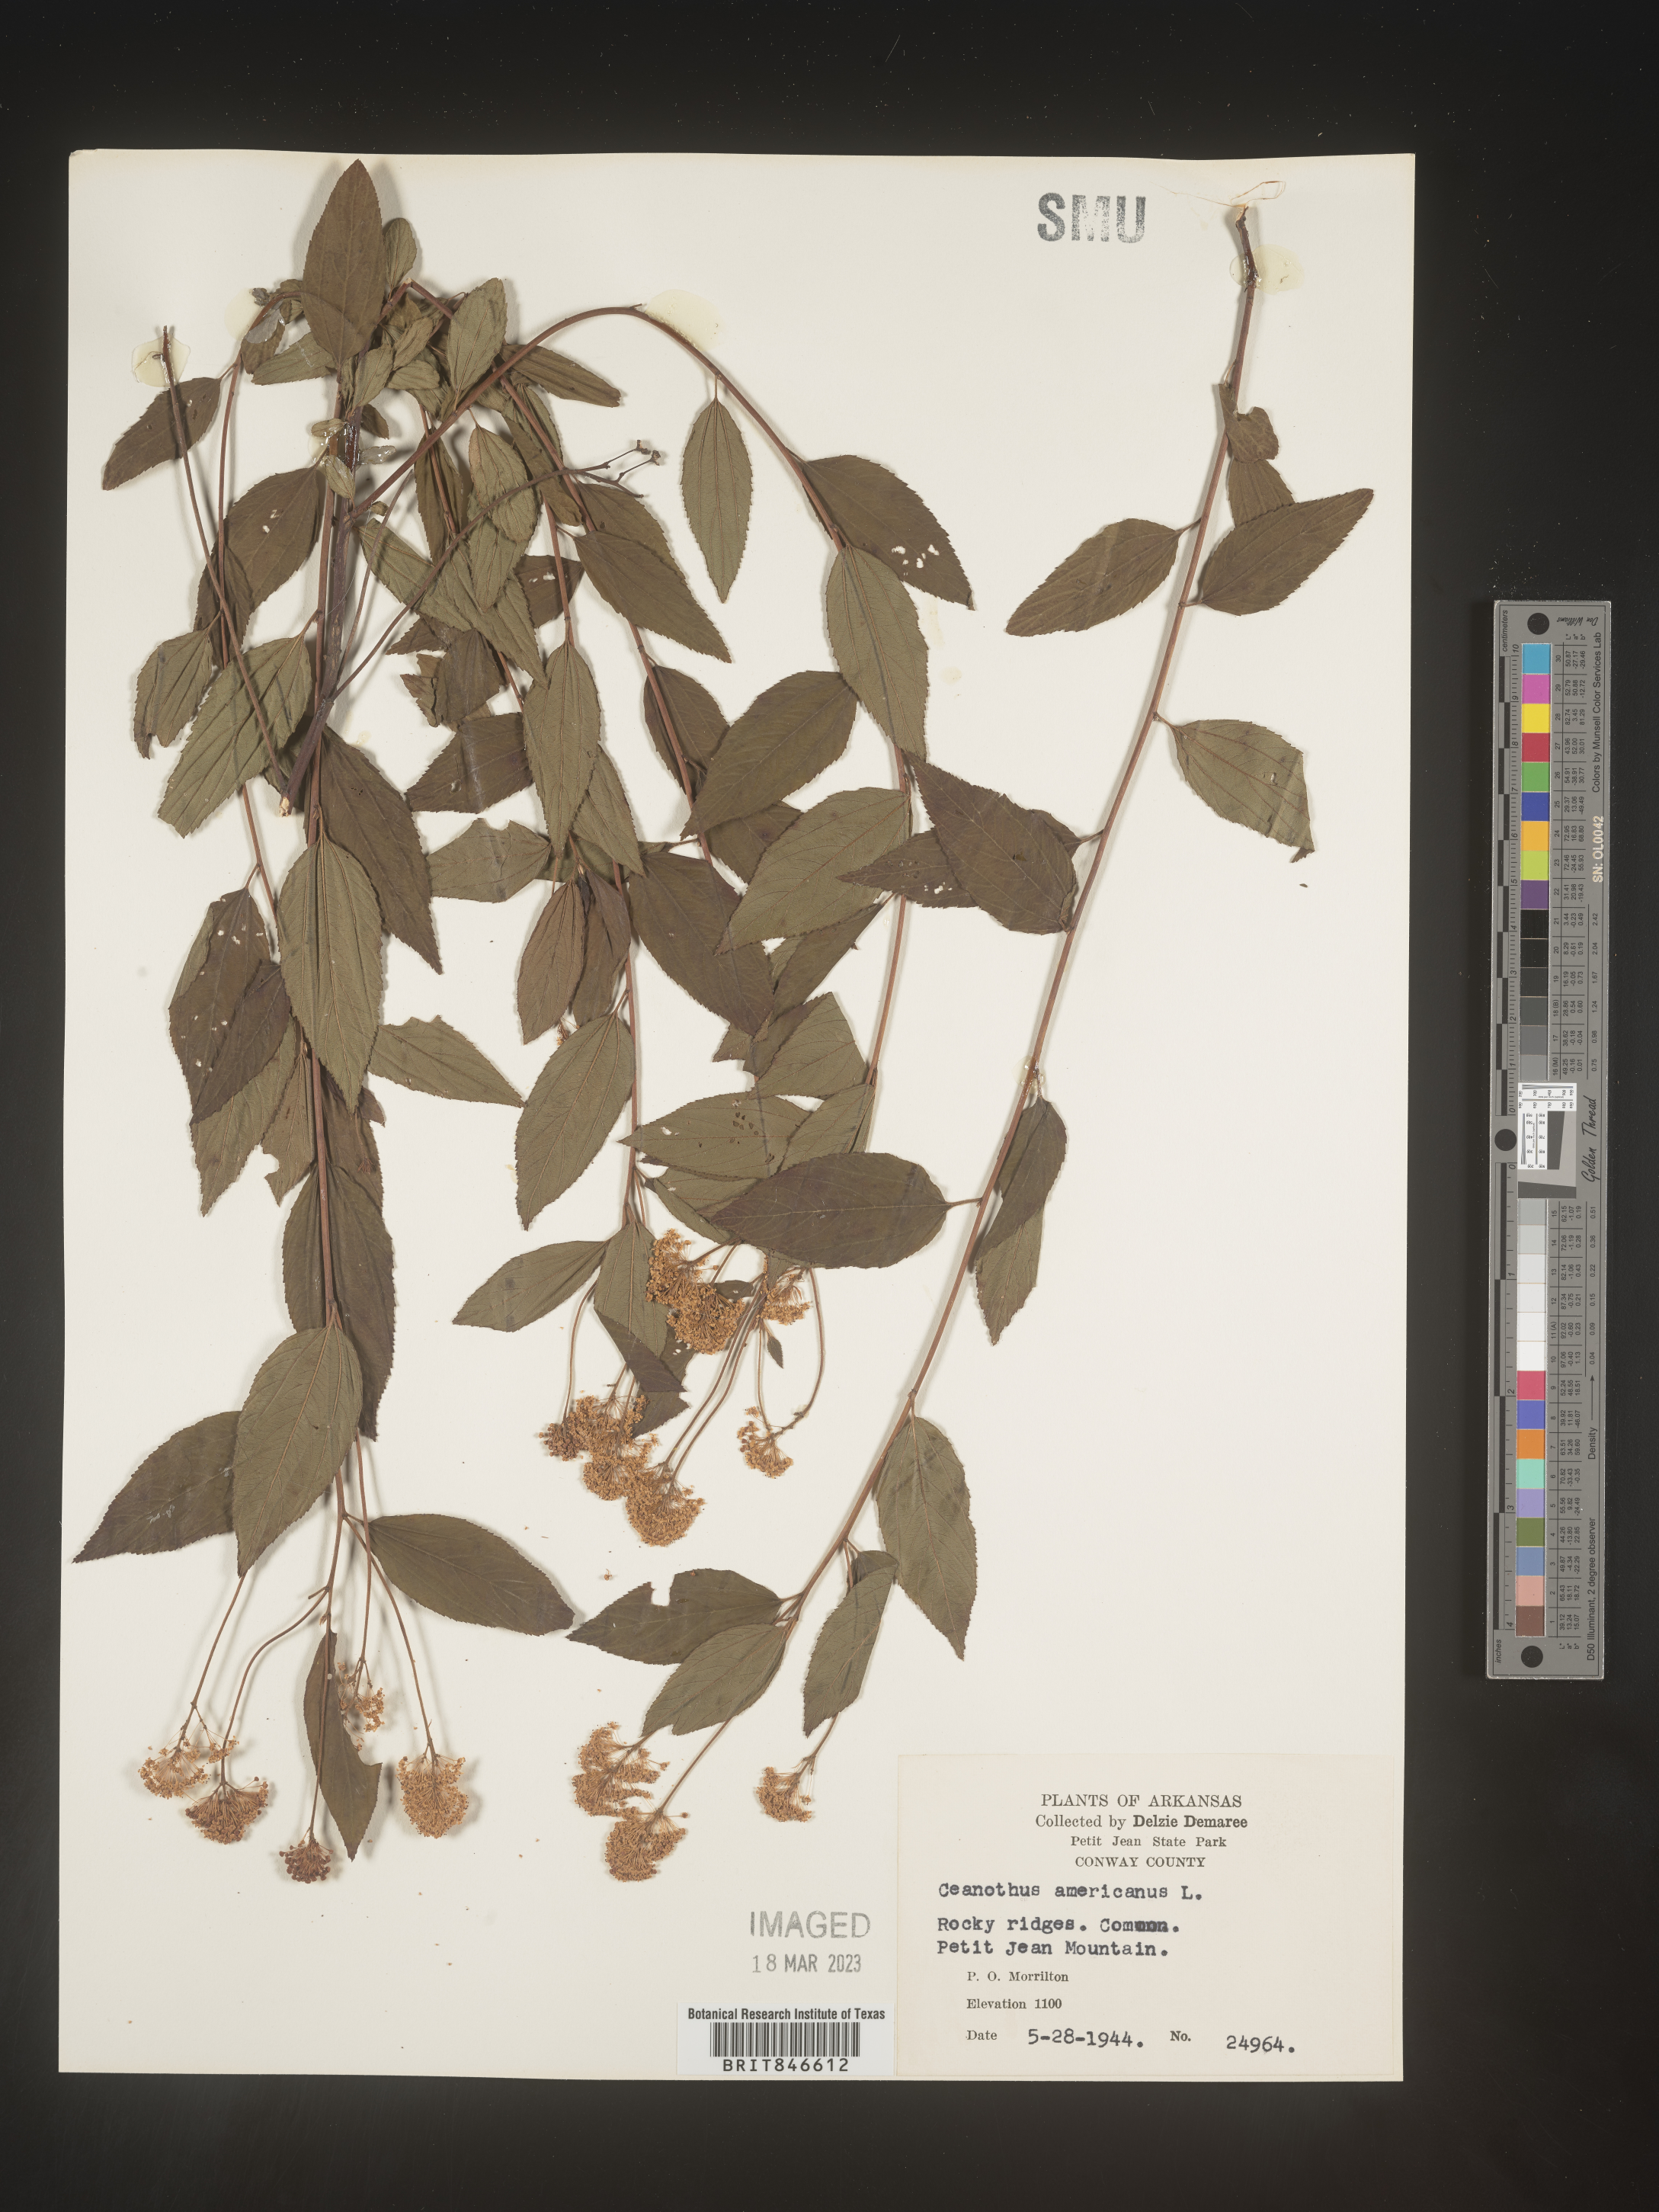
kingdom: Plantae
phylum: Tracheophyta
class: Magnoliopsida
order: Rosales
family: Rhamnaceae
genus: Ceanothus
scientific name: Ceanothus americanus
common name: Redroot
